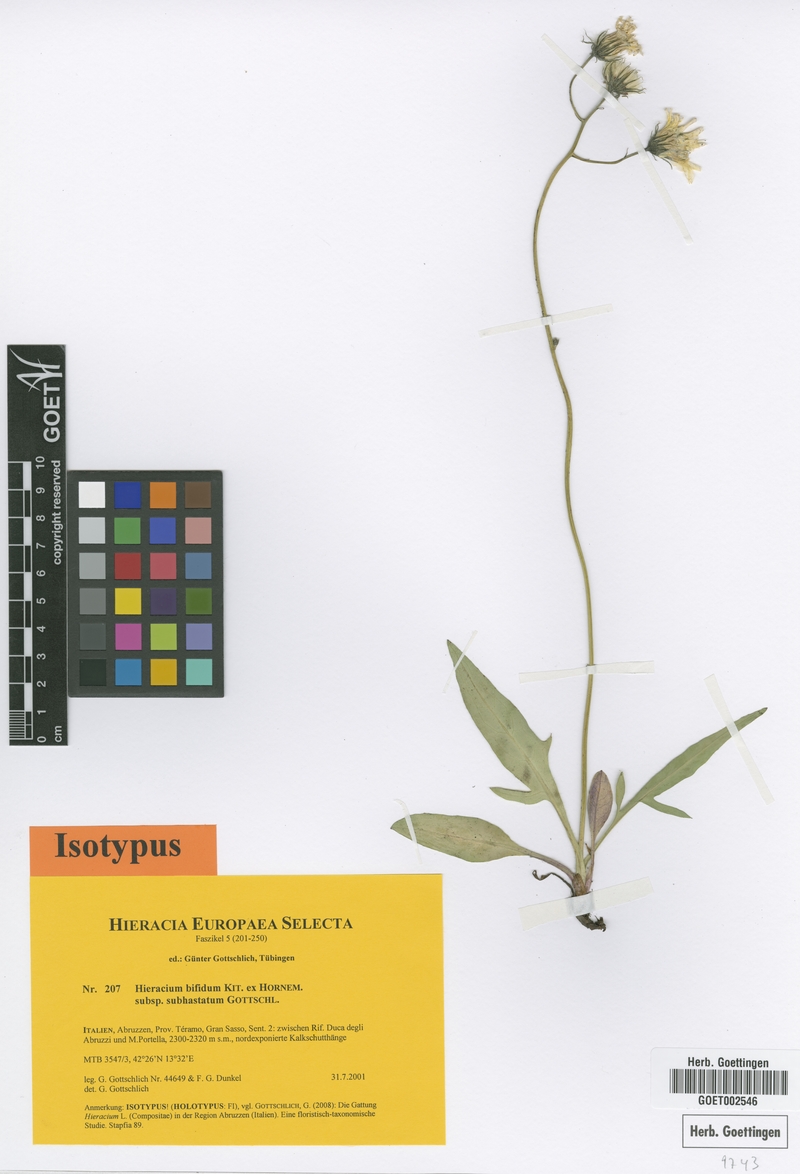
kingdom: Plantae
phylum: Tracheophyta
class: Magnoliopsida
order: Asterales
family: Asteraceae
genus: Hieracium
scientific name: Hieracium bifidum
